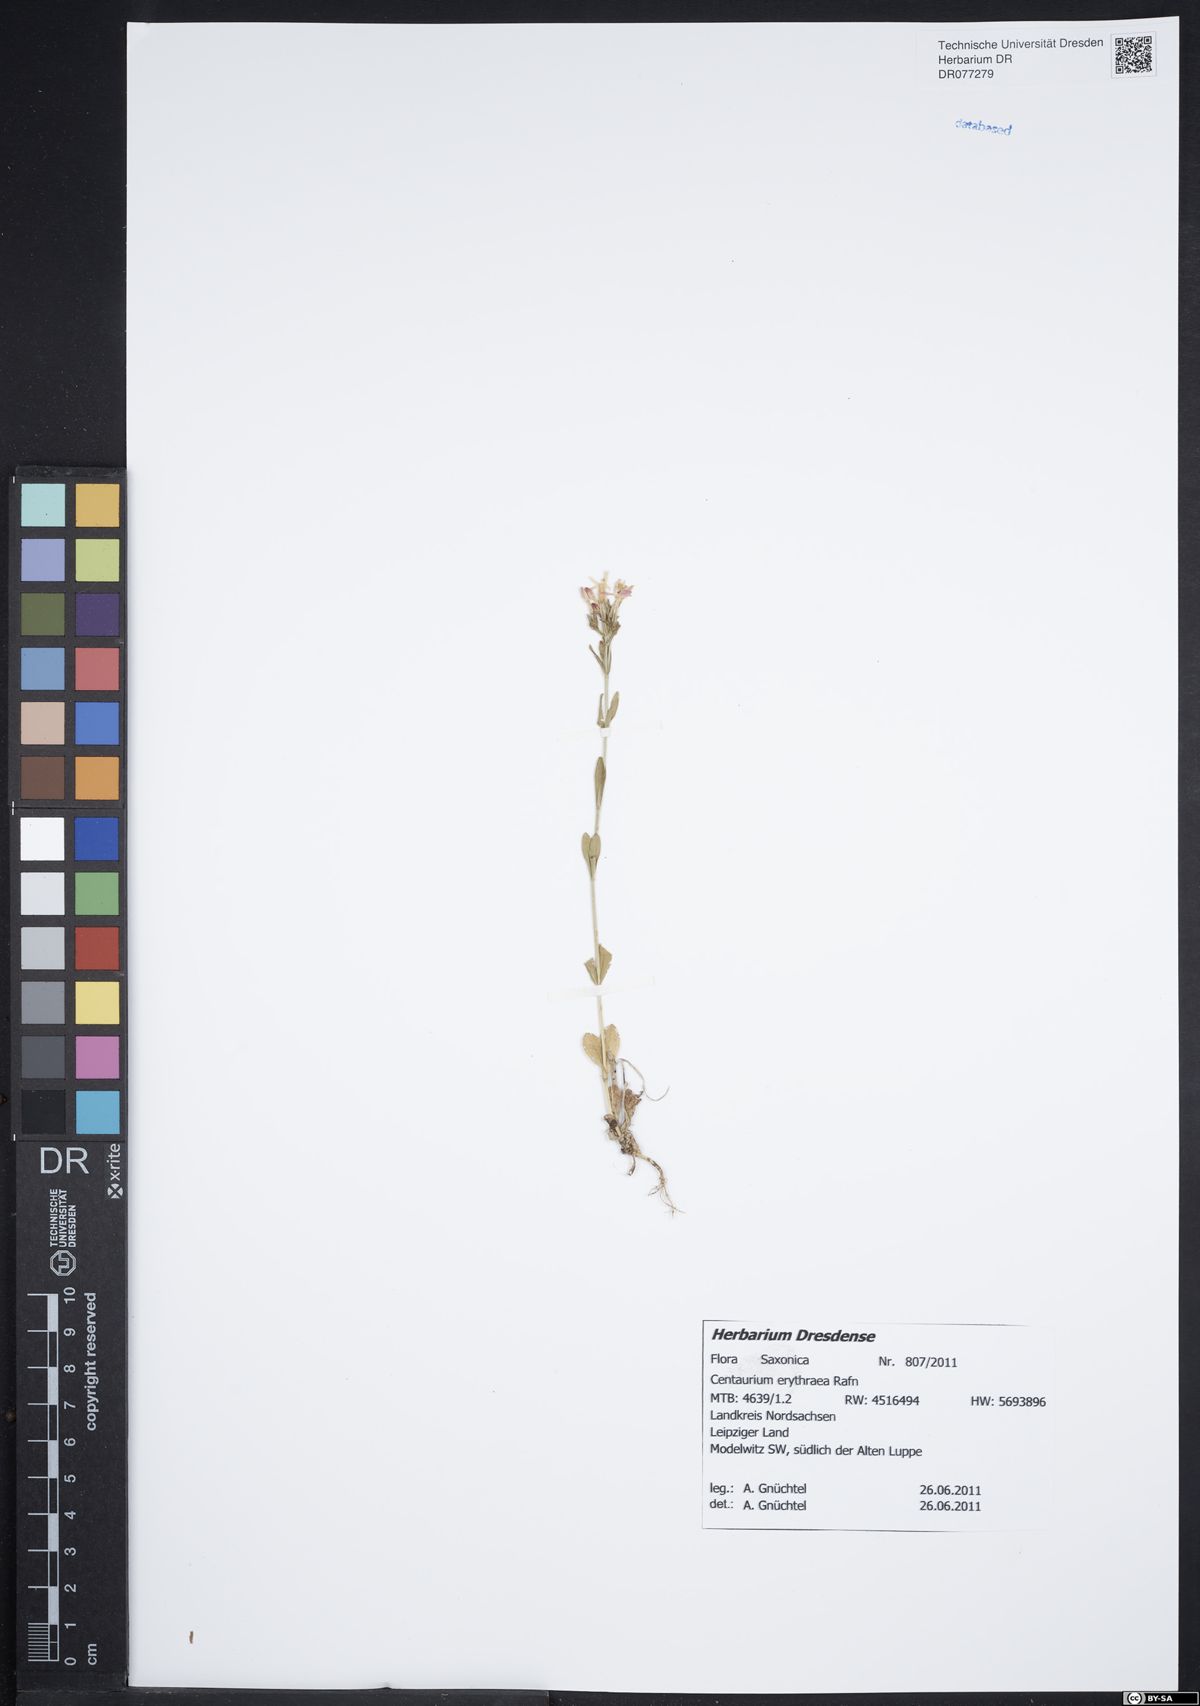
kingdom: Plantae
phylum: Tracheophyta
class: Magnoliopsida
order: Gentianales
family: Gentianaceae
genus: Centaurium
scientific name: Centaurium erythraea
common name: Common centaury
